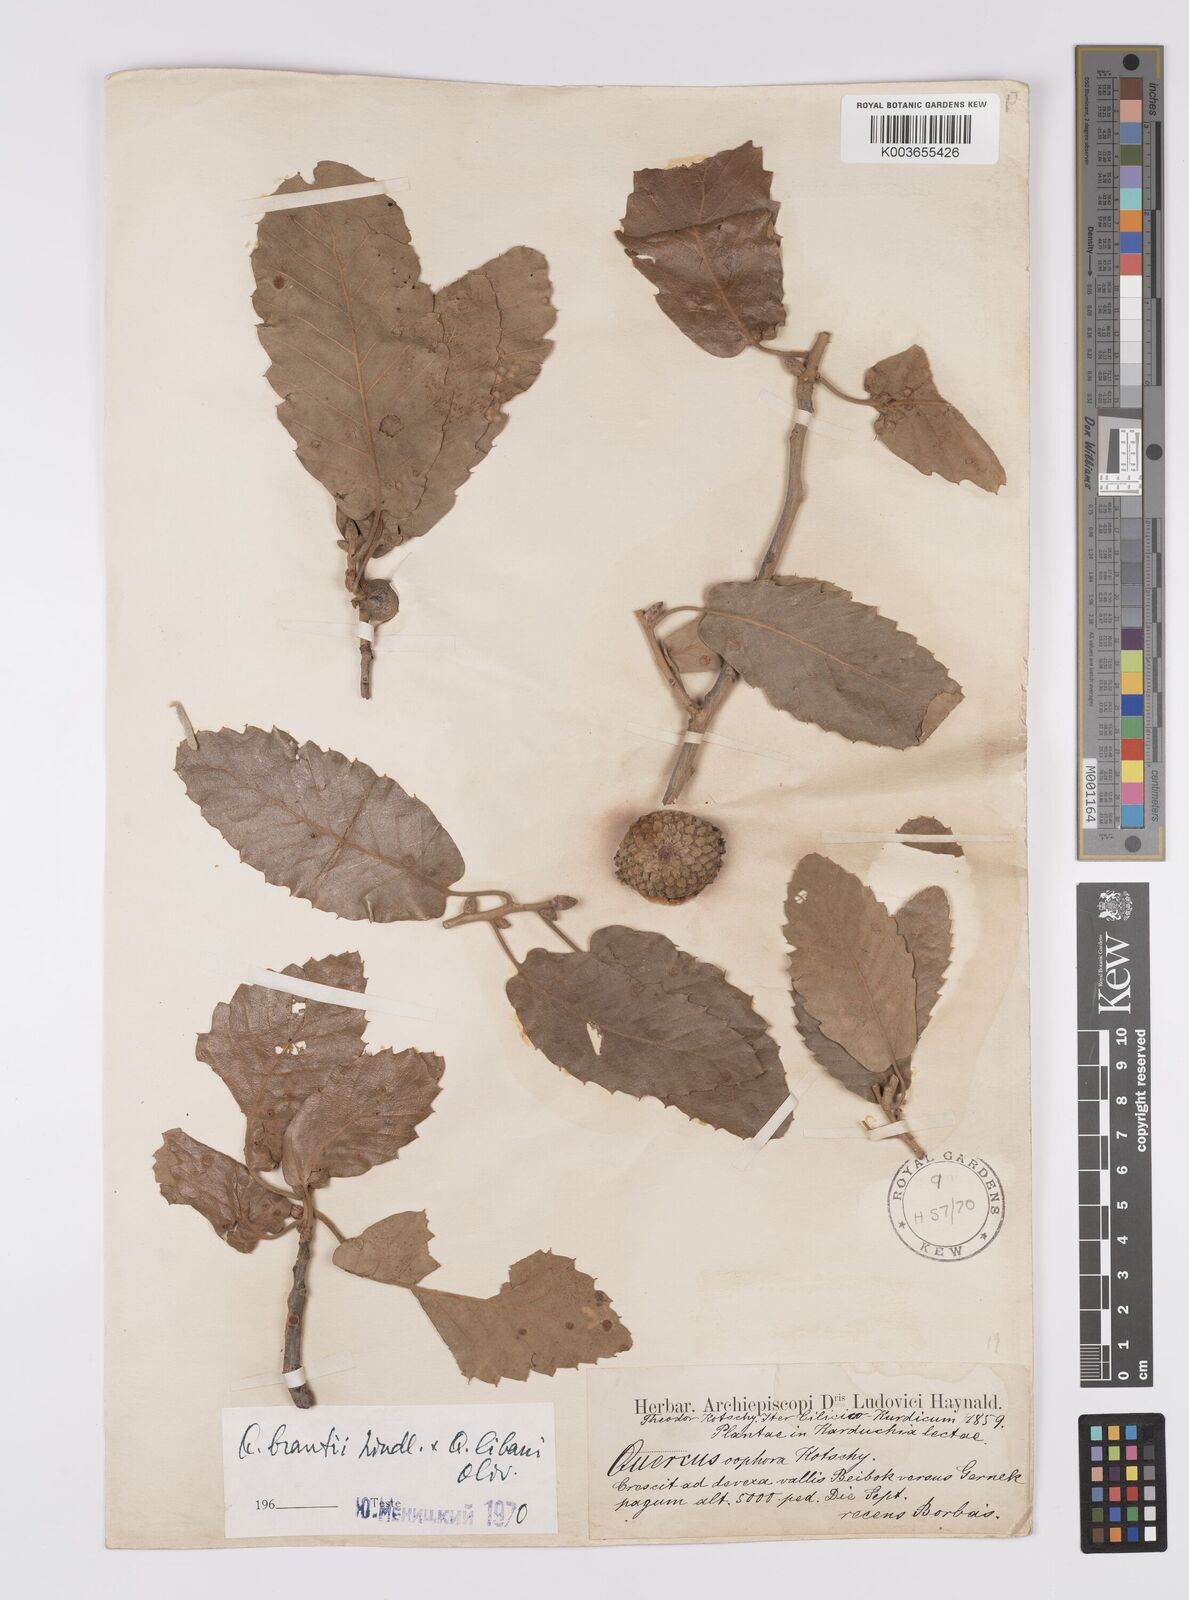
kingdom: Plantae
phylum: Tracheophyta
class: Magnoliopsida
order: Fagales
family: Fagaceae
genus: Quercus
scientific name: Quercus brantii
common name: Brant oak
